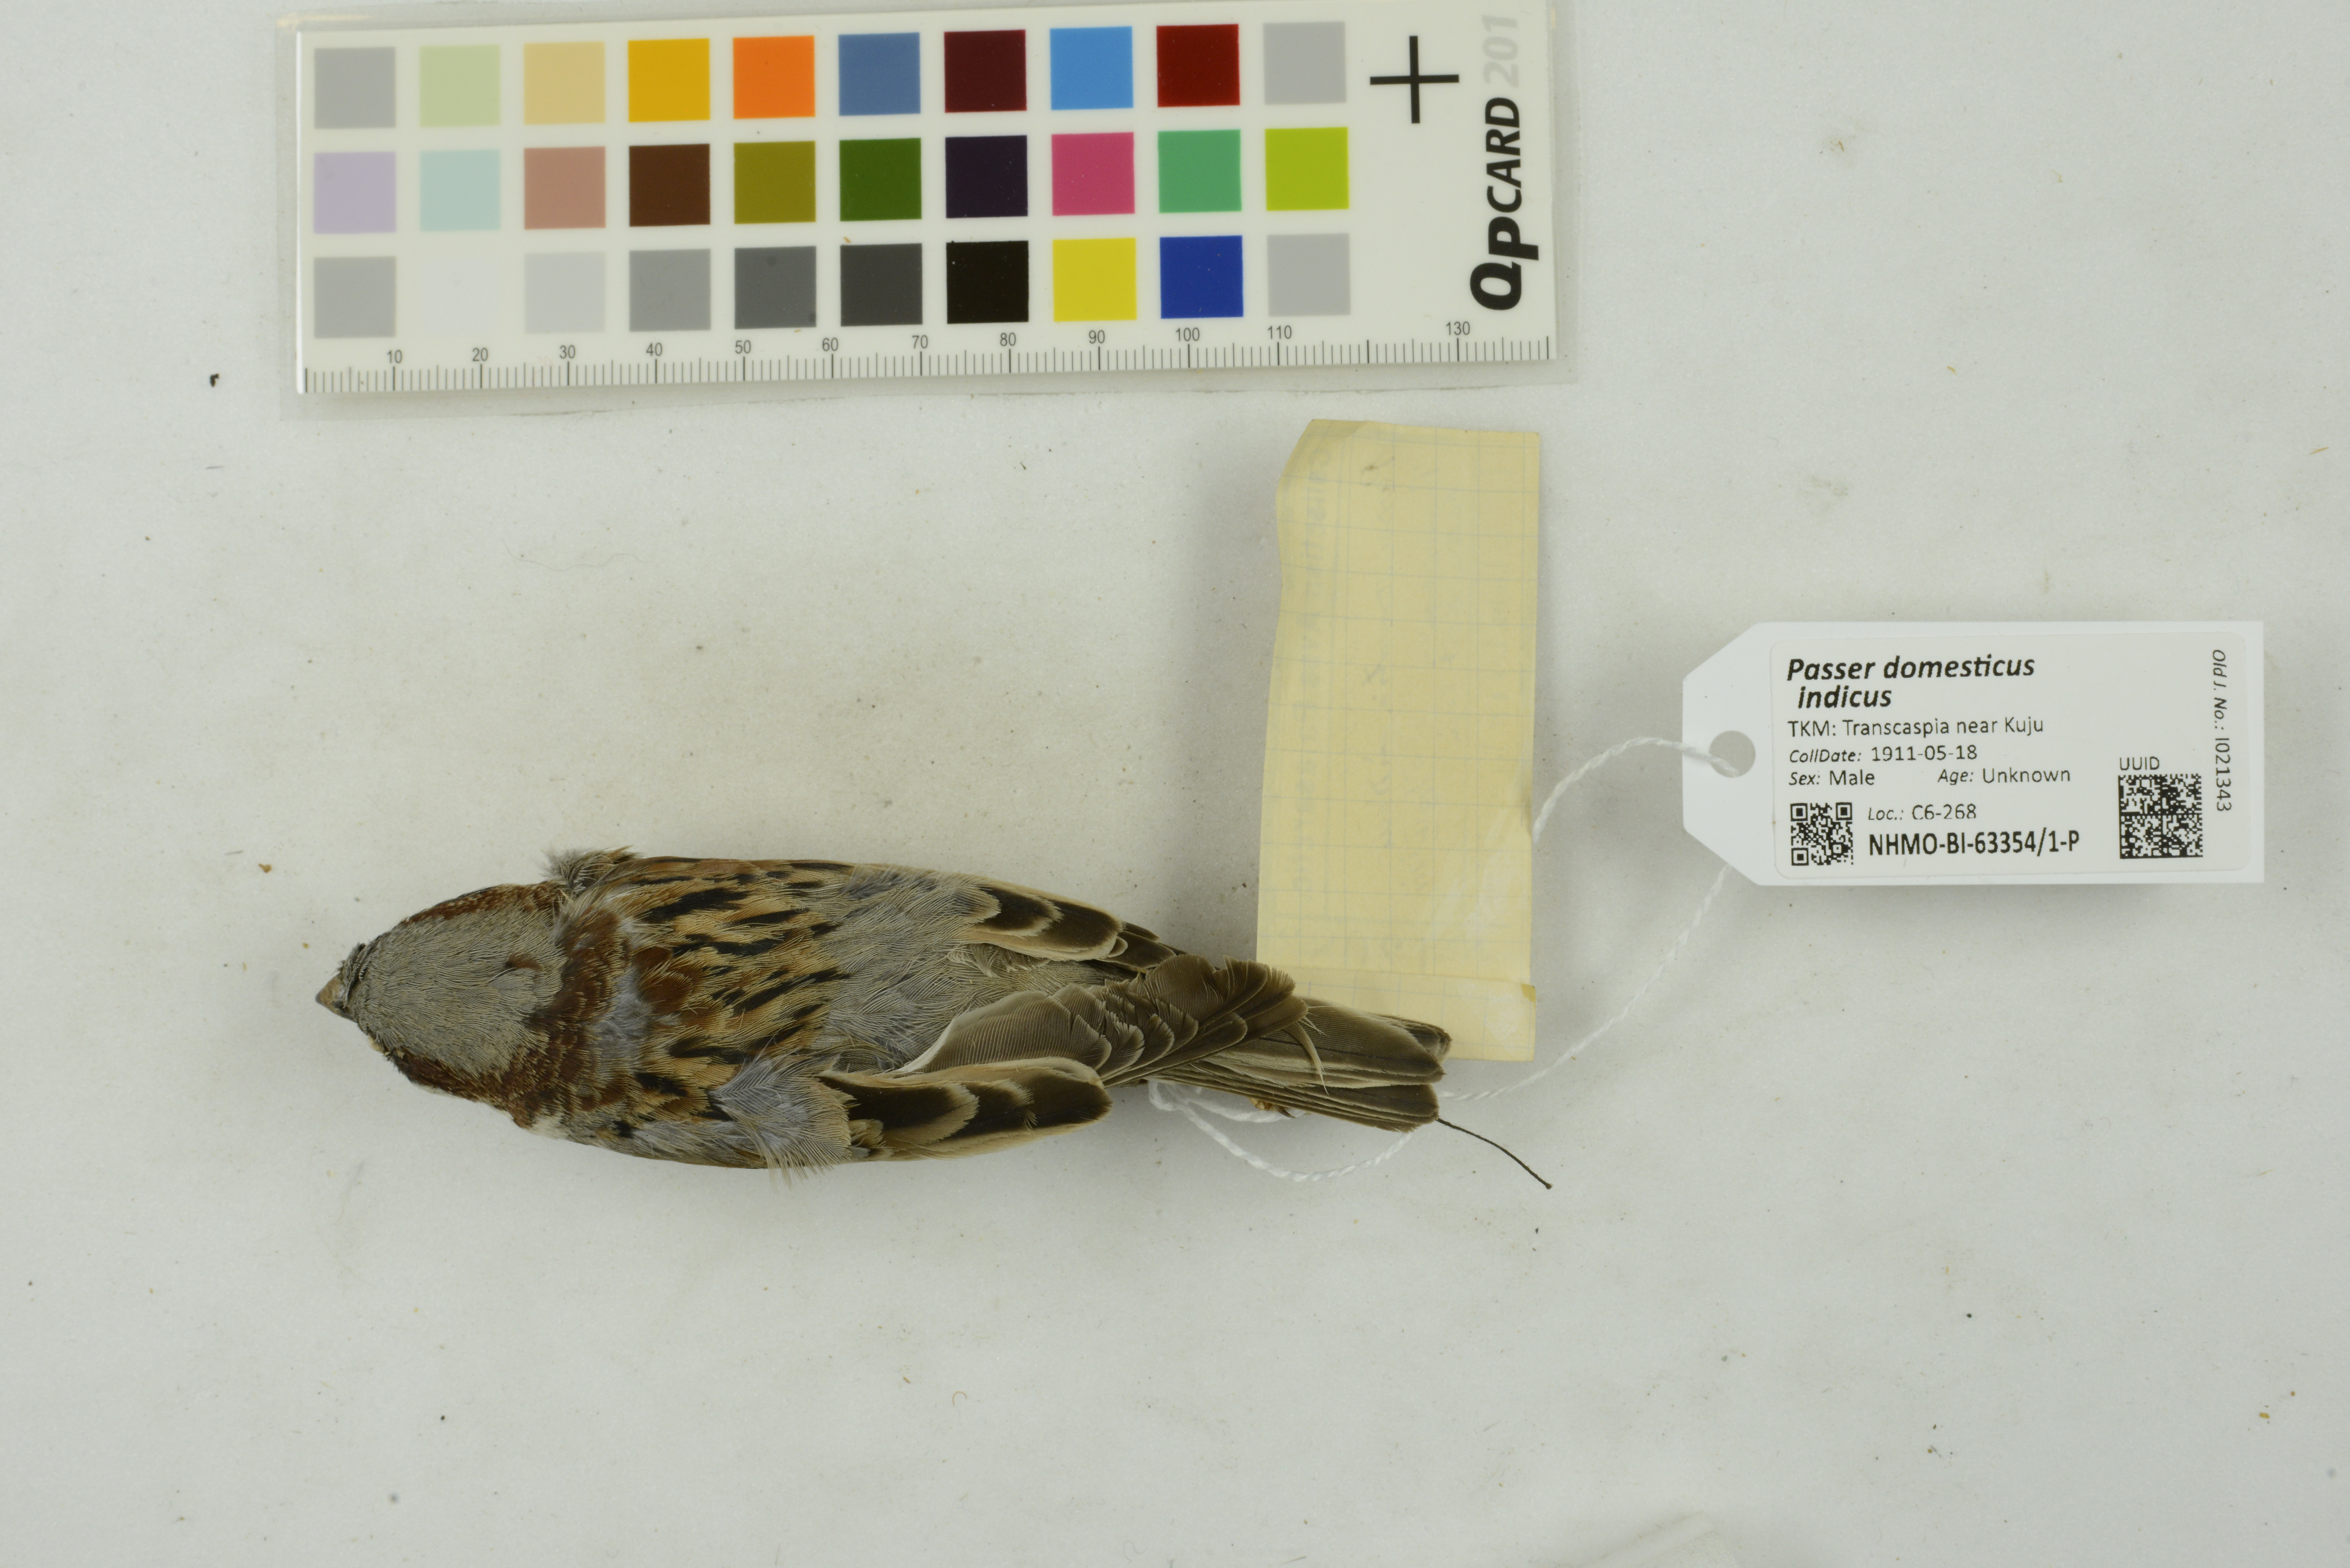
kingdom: Animalia
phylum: Chordata
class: Aves
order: Passeriformes
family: Passeridae
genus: Passer
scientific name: Passer domesticus
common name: House sparrow
